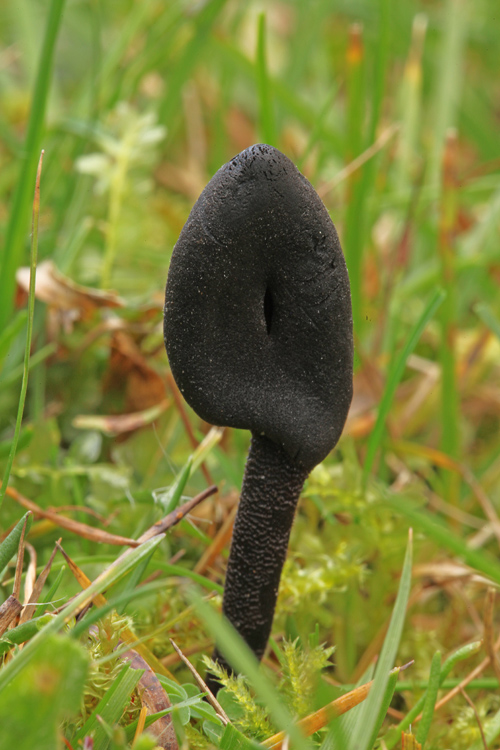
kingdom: Fungi
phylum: Ascomycota
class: Geoglossomycetes
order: Geoglossales
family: Geoglossaceae
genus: Geoglossum
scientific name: Geoglossum cookeianum
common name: bred jordtunge
